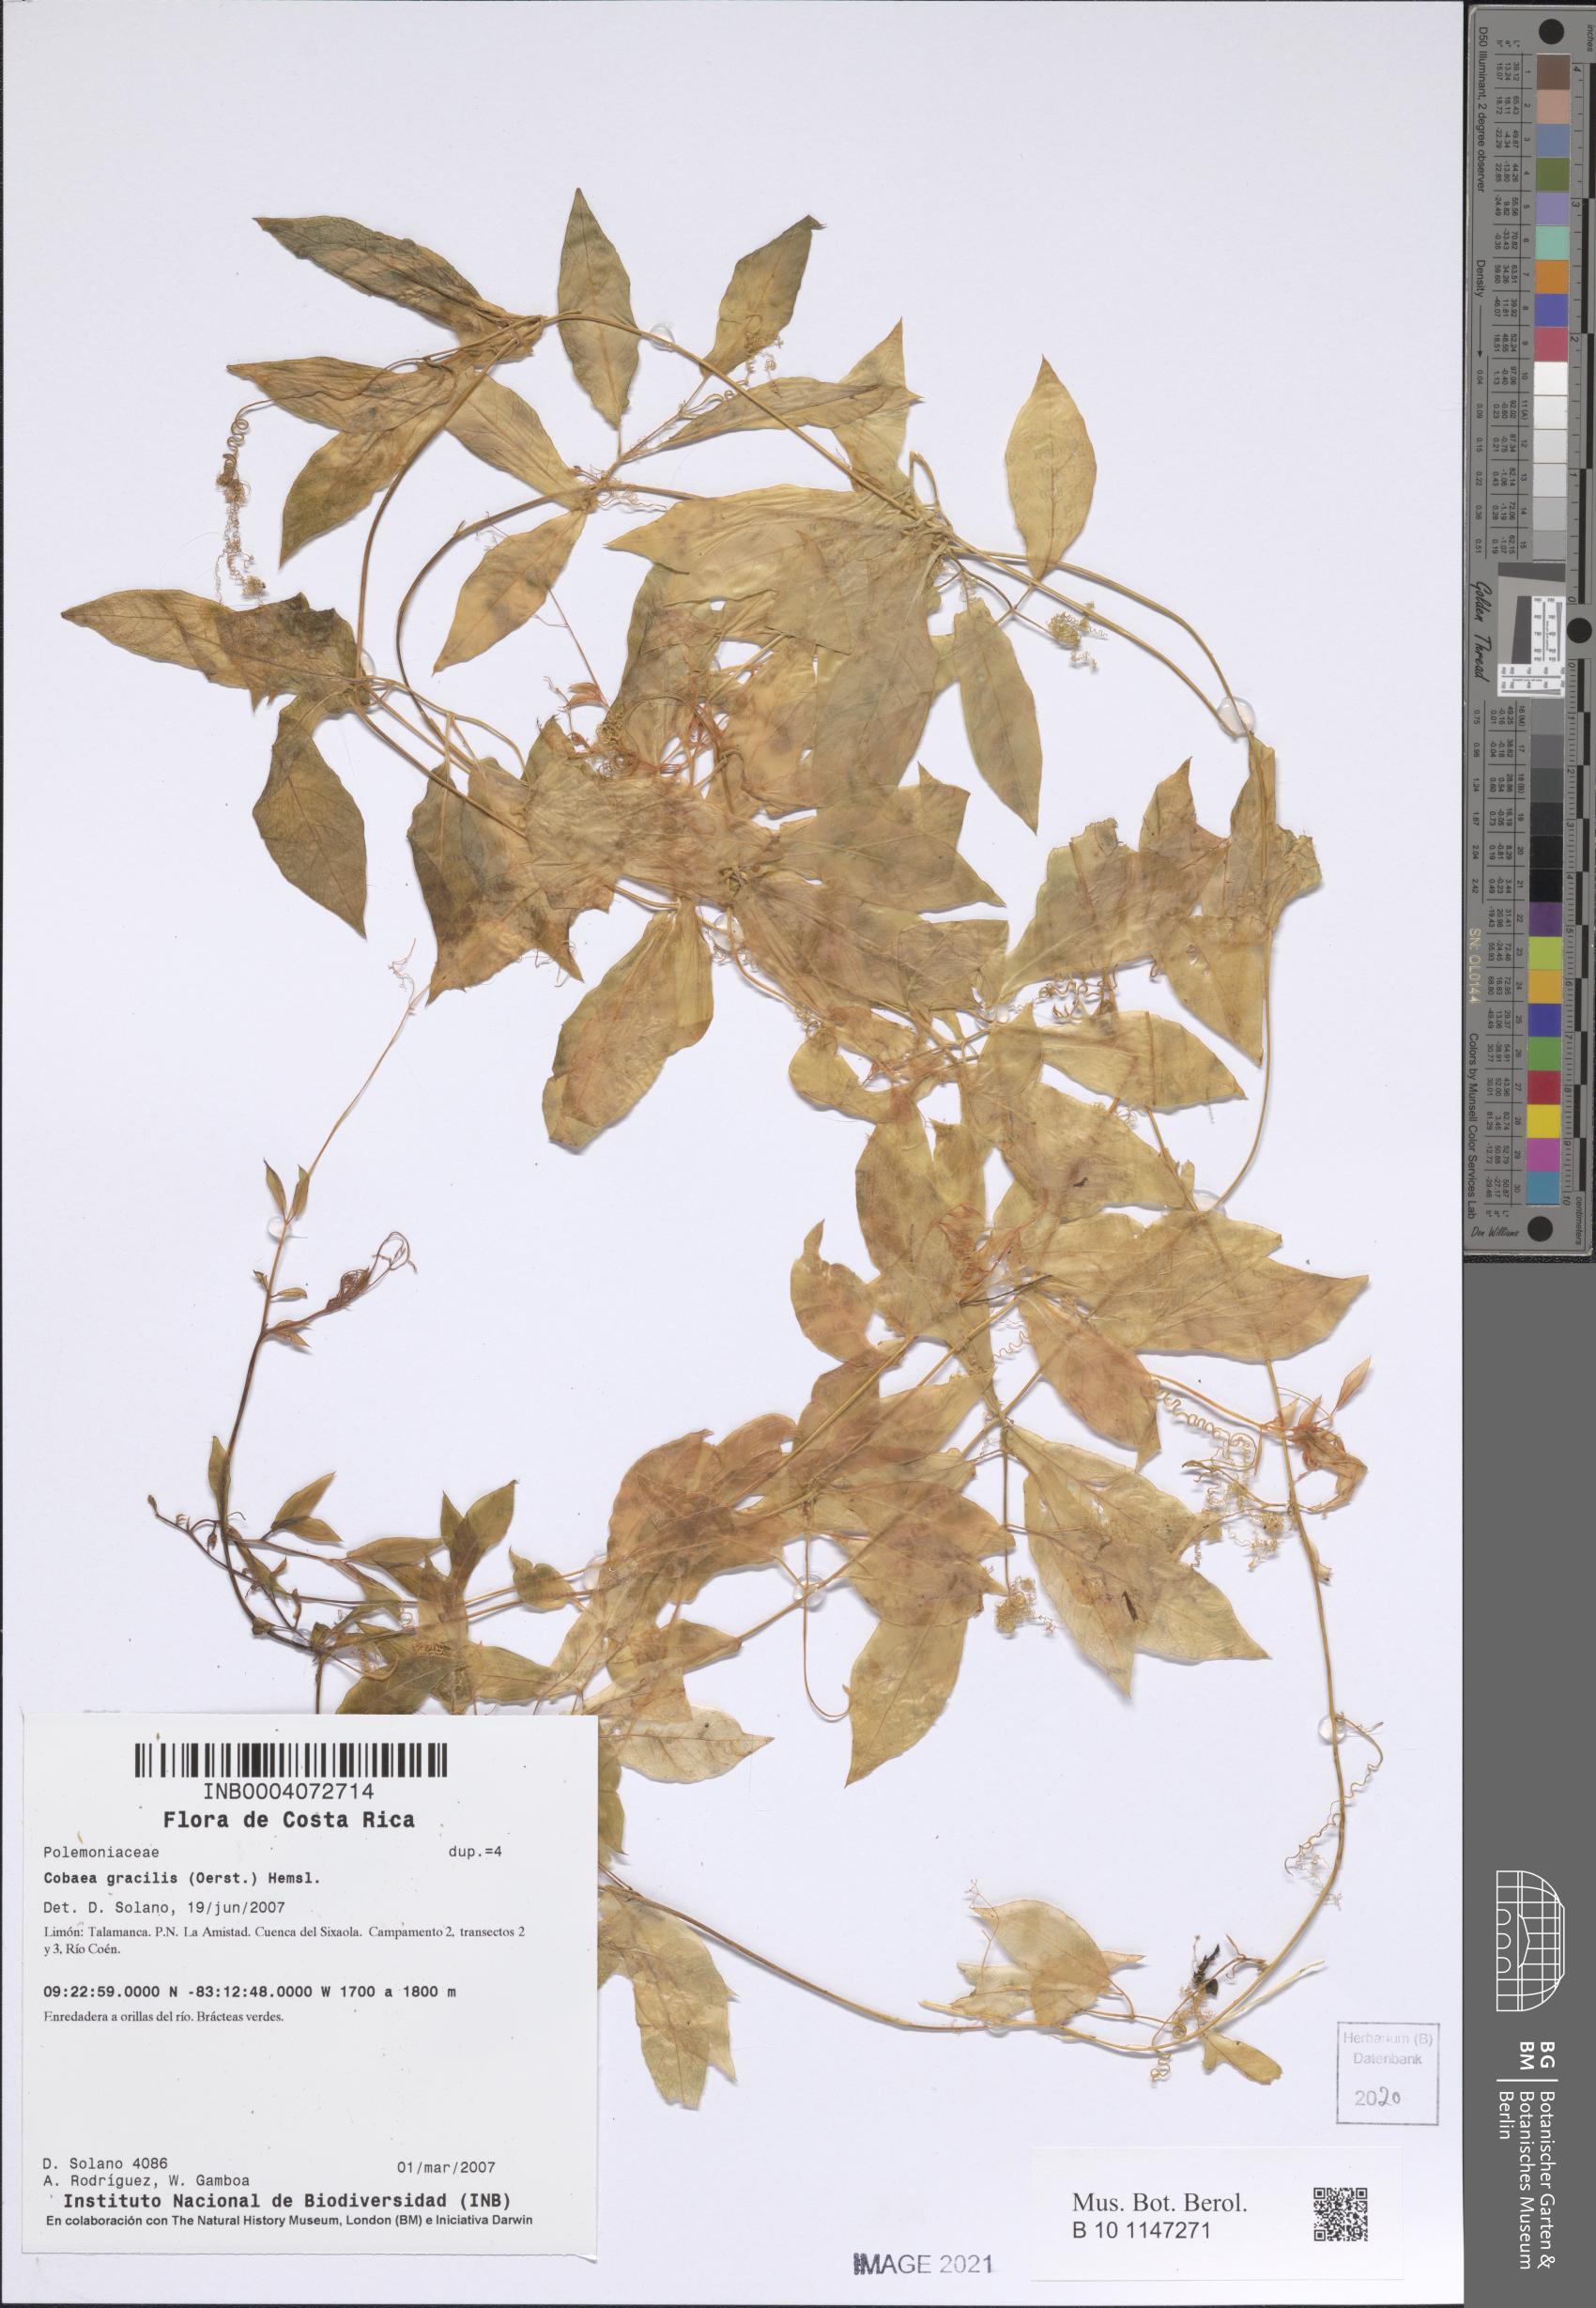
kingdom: Plantae
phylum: Tracheophyta
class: Magnoliopsida
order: Ericales
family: Polemoniaceae
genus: Cobaea
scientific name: Cobaea gracilis
